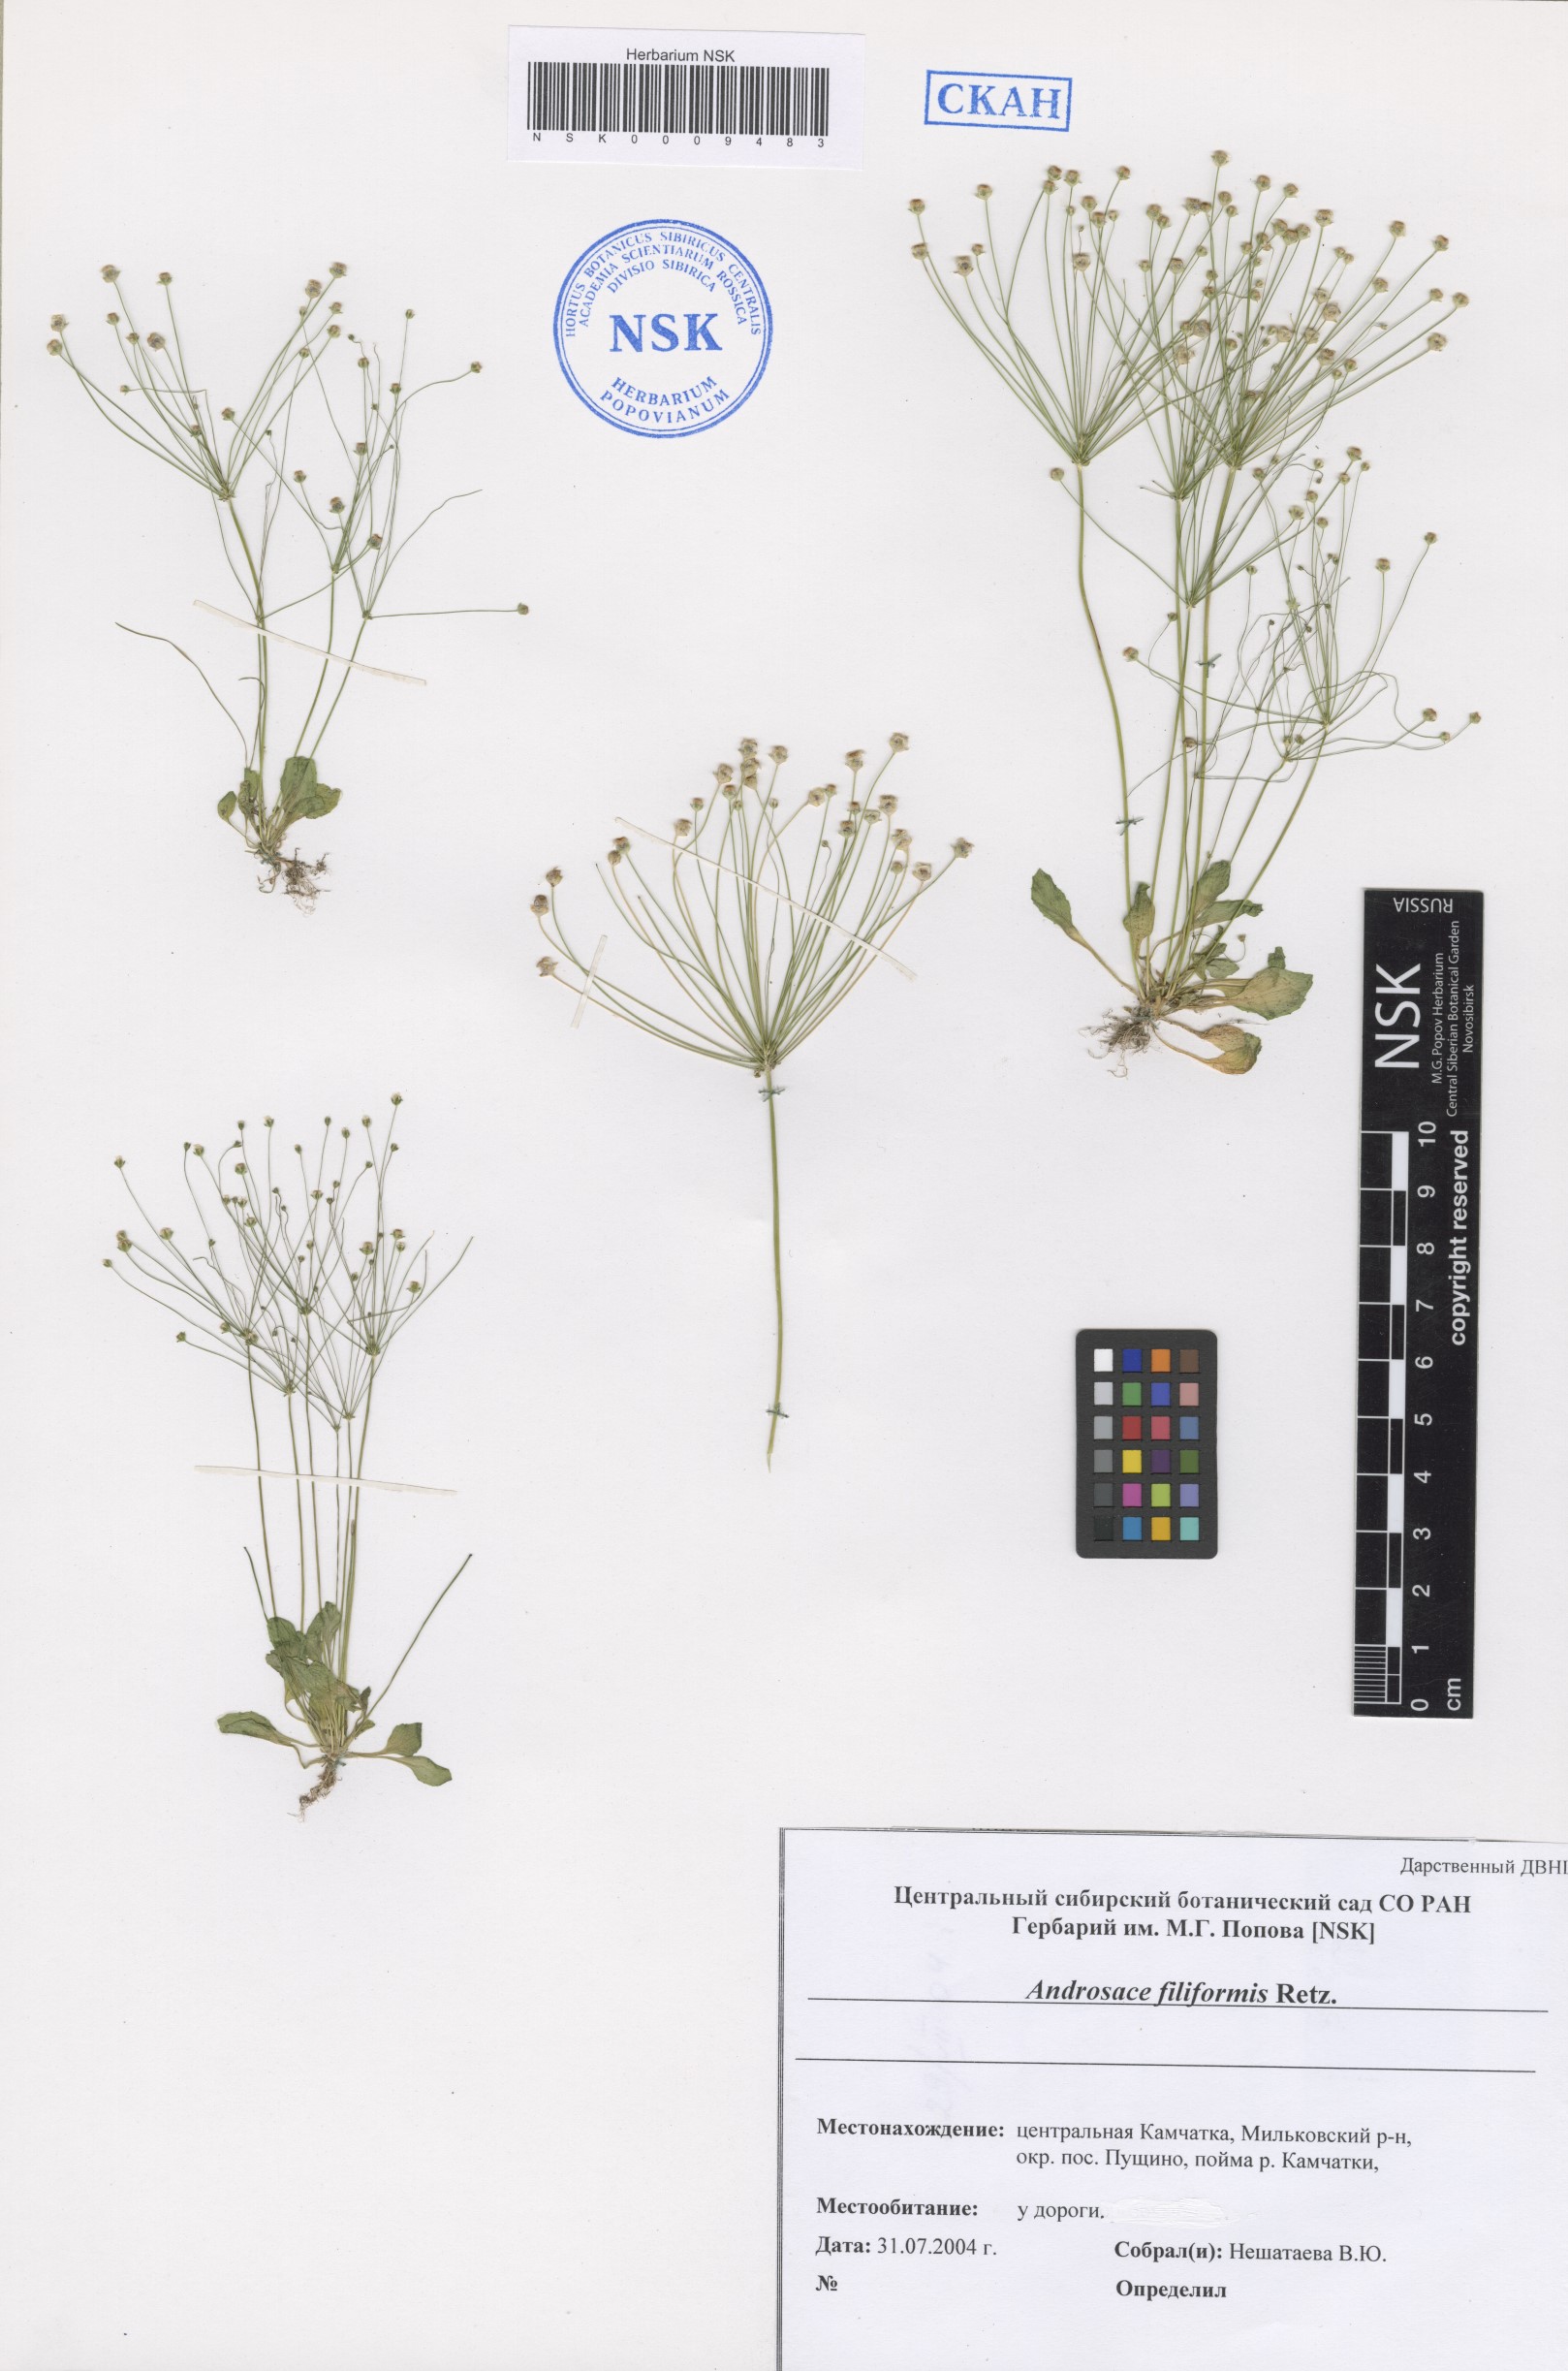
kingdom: Plantae
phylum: Tracheophyta
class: Magnoliopsida
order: Ericales
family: Primulaceae
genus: Androsace
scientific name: Androsace filiformis
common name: Filiform rock jasmine
